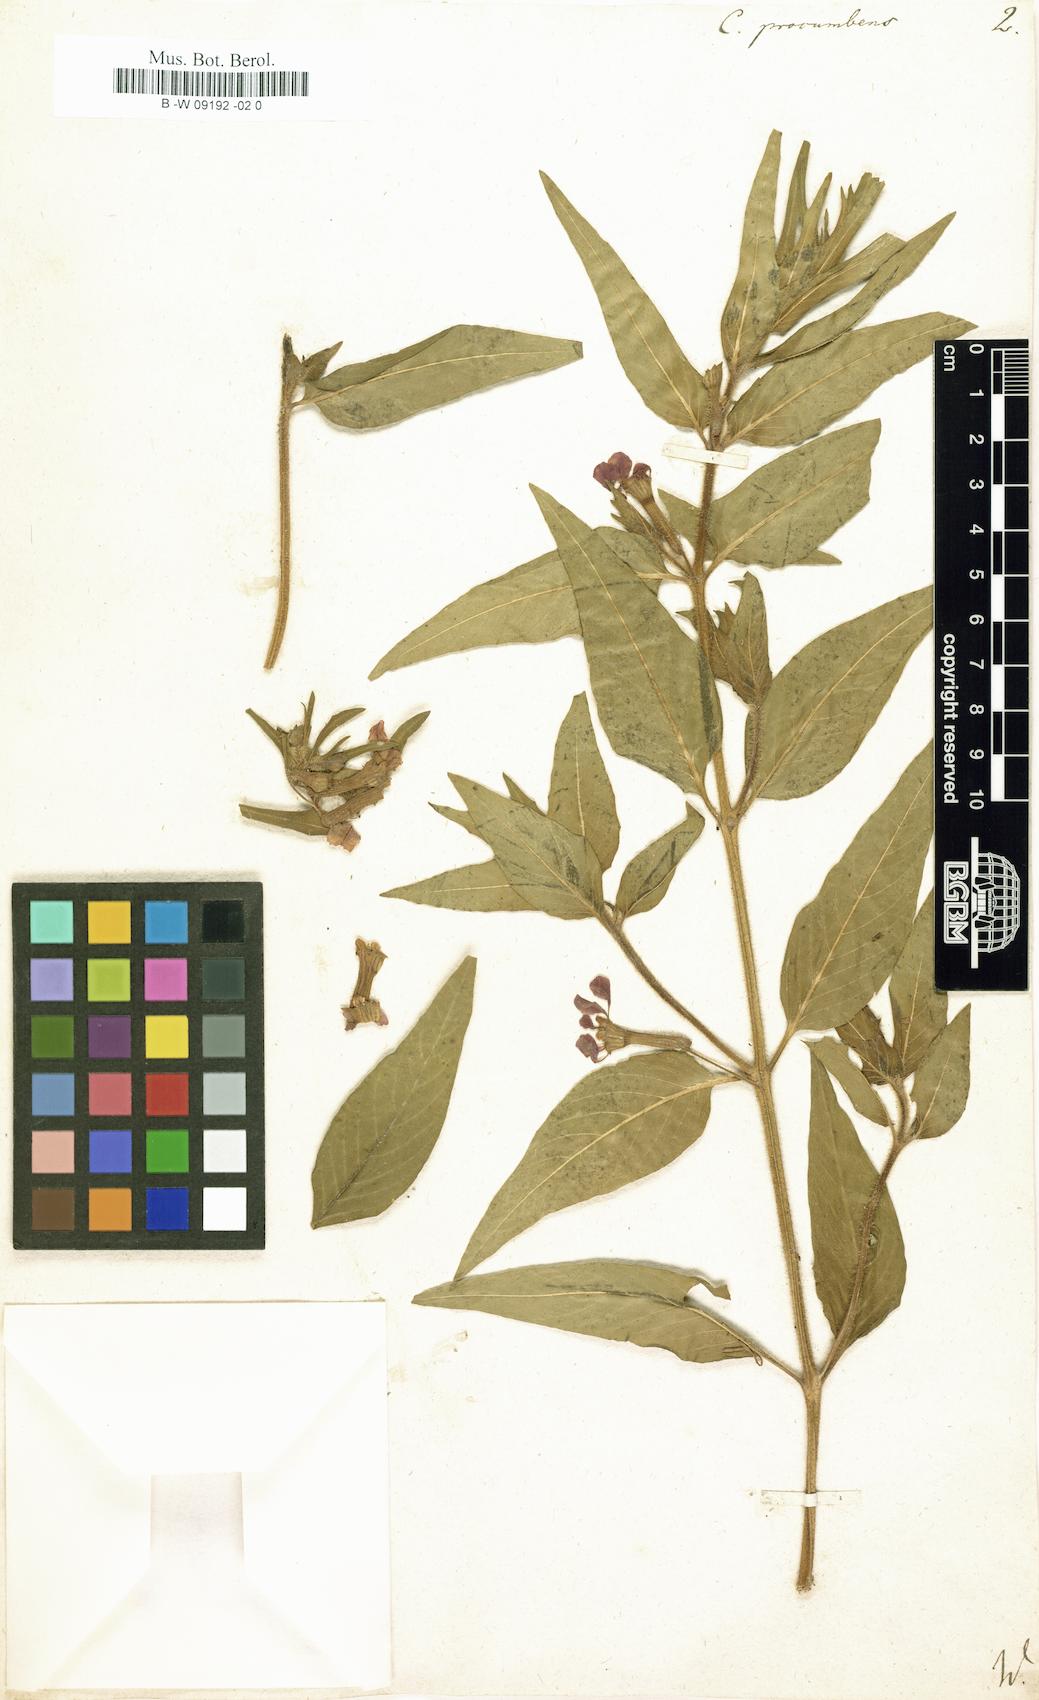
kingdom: Plantae
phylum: Tracheophyta
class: Magnoliopsida
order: Myrtales
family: Lythraceae
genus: Cuphea
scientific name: Cuphea procumbens
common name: Creeping waxweed
